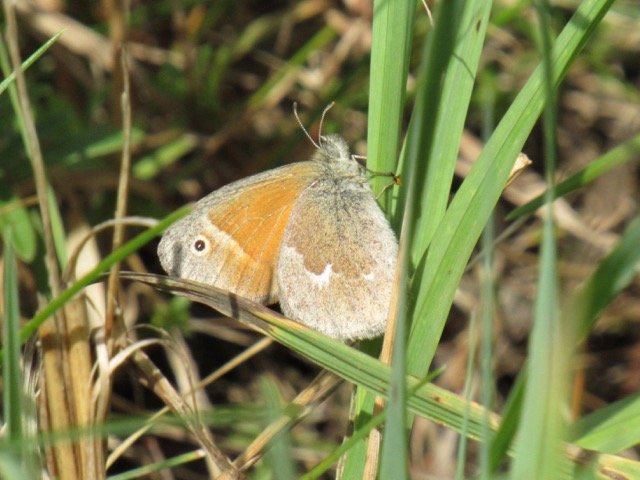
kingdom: Animalia
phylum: Arthropoda
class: Insecta
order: Lepidoptera
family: Nymphalidae
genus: Coenonympha
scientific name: Coenonympha tullia
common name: Large Heath
